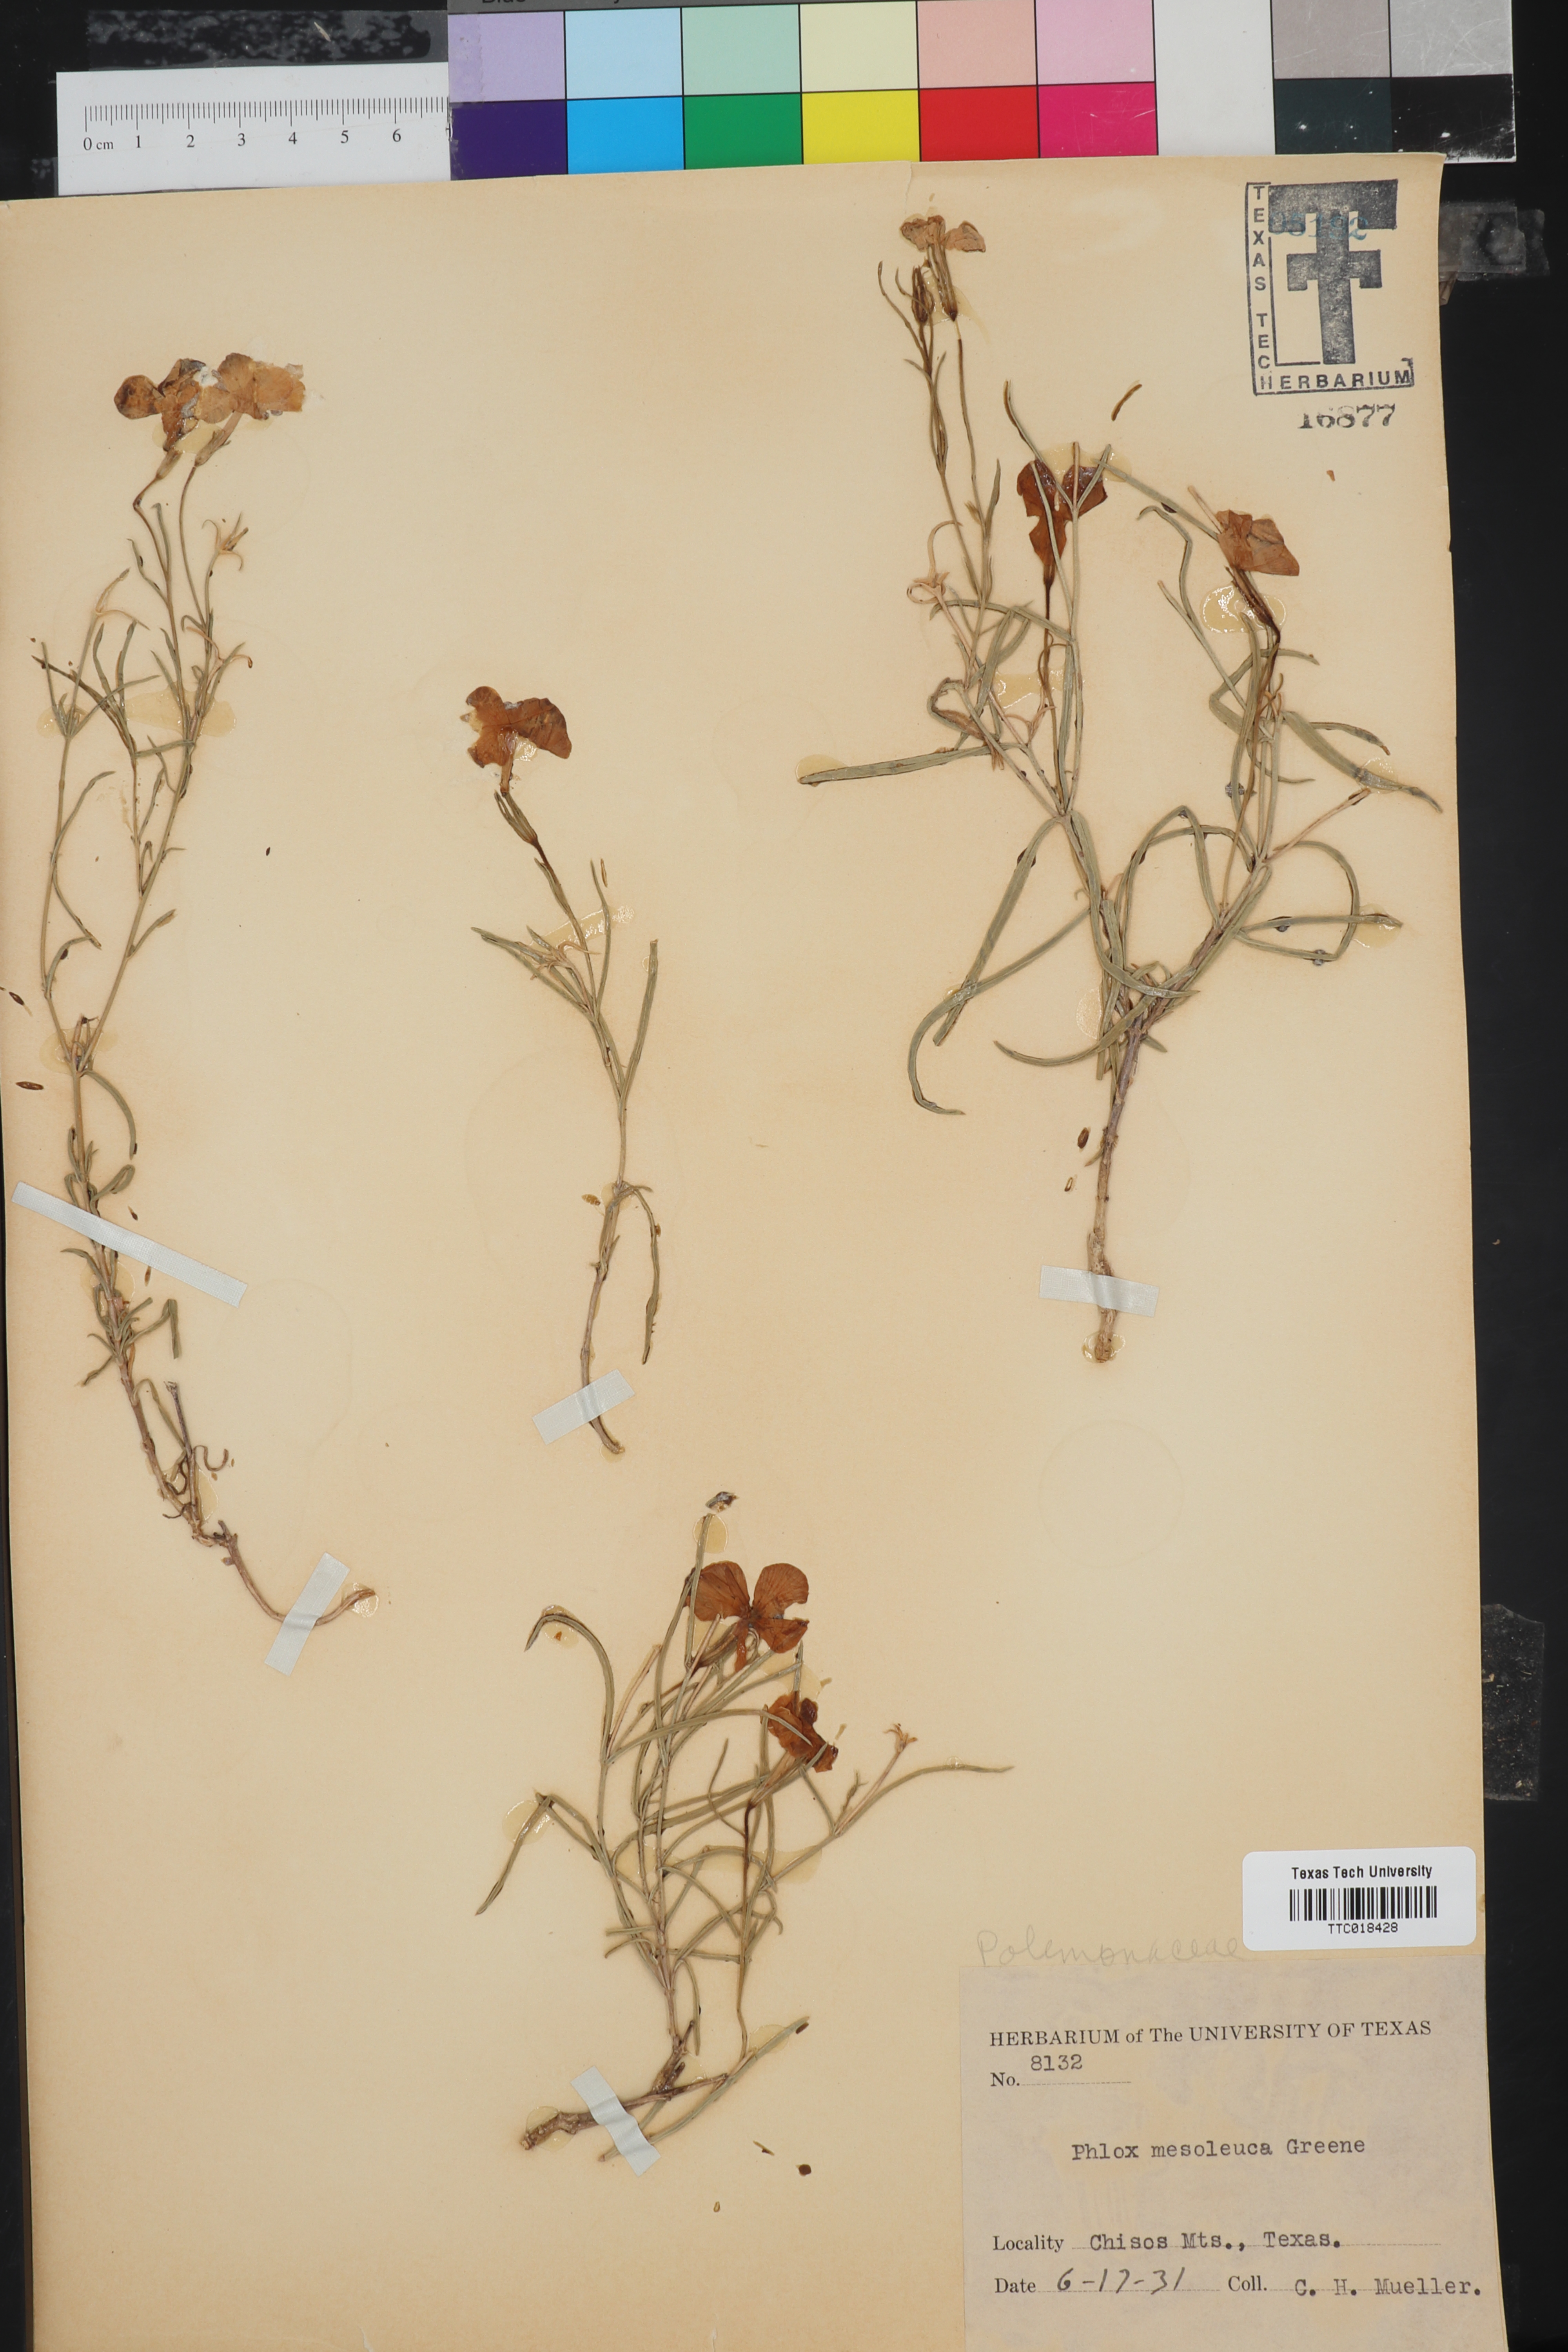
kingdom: Plantae
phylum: Tracheophyta
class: Magnoliopsida
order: Ericales
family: Polemoniaceae
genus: Phlox
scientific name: Phlox mesoleuca
